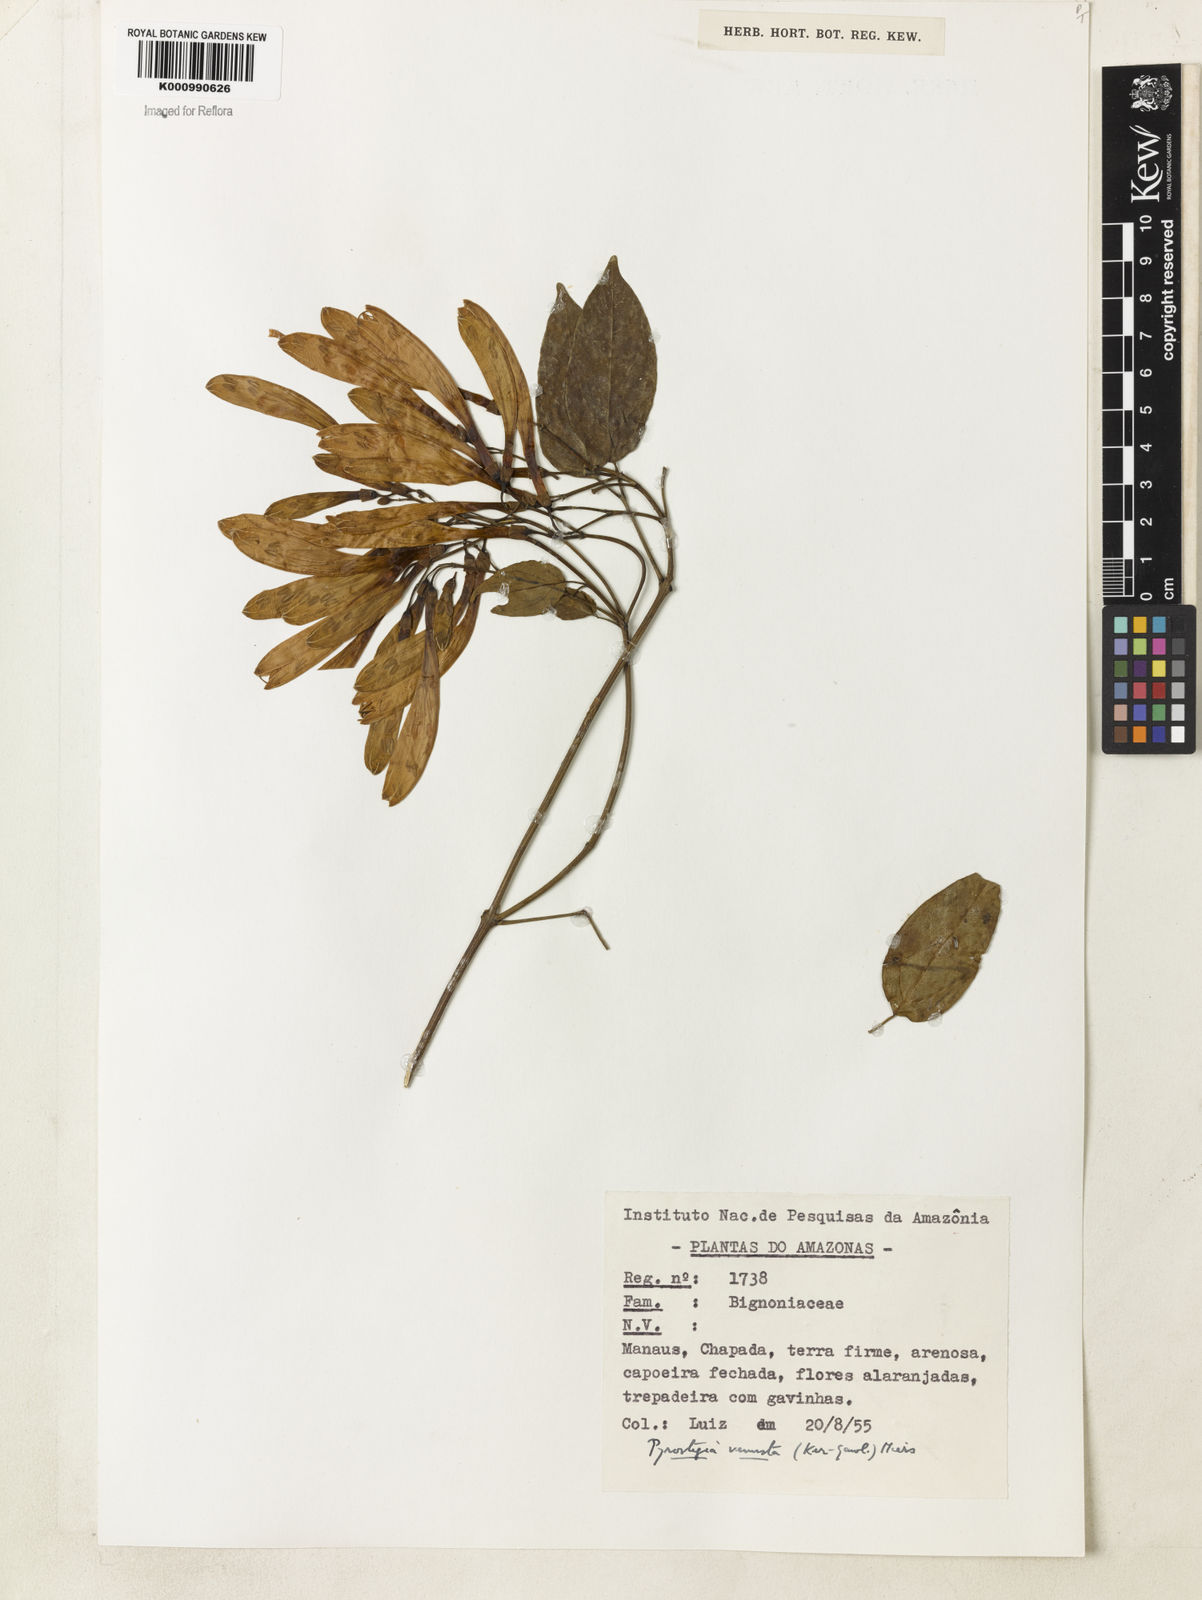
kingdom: Plantae
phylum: Tracheophyta
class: Magnoliopsida
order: Lamiales
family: Bignoniaceae
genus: Pyrostegia
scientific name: Pyrostegia venusta
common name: Flamevine
